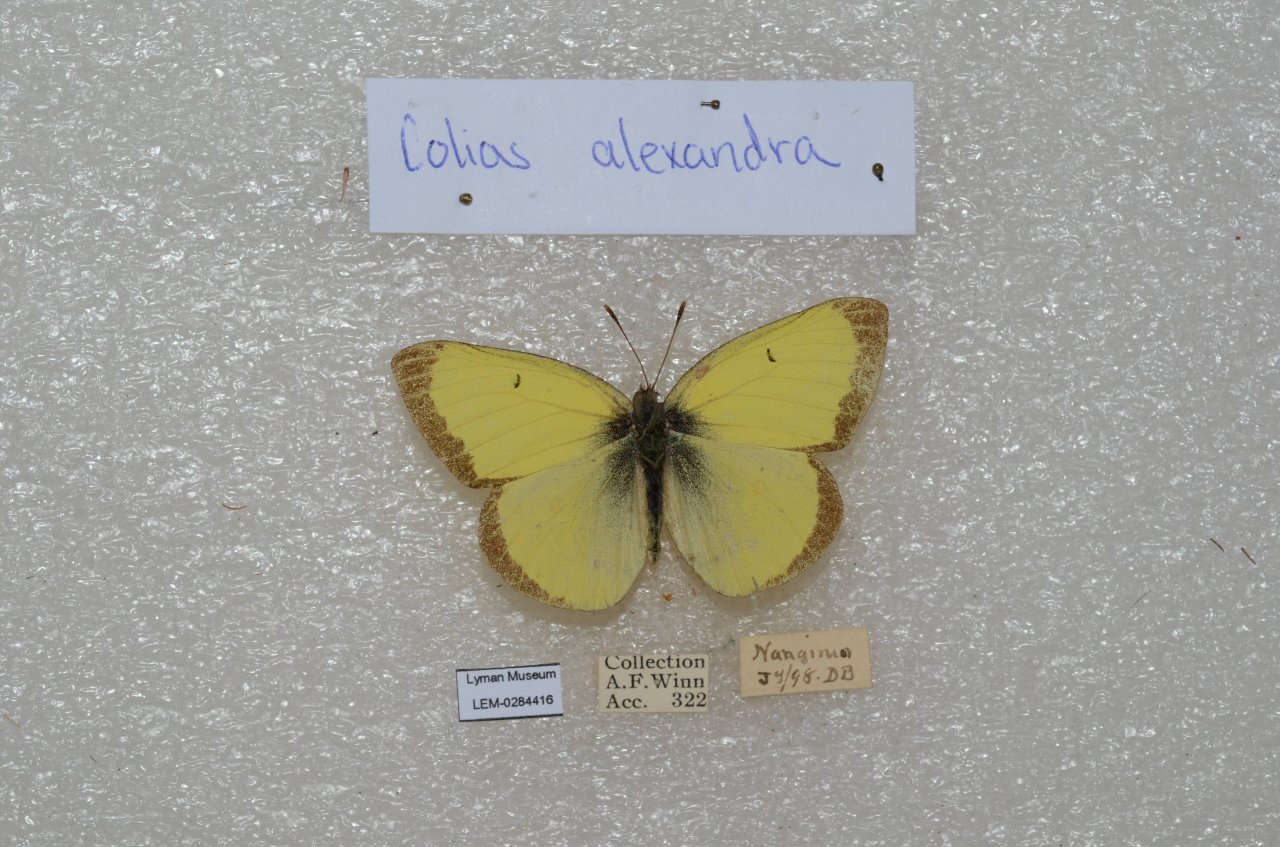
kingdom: Animalia
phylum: Arthropoda
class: Insecta
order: Lepidoptera
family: Pieridae
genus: Colias
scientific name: Colias alexandra
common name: Queen Alexandra's Sulphur
